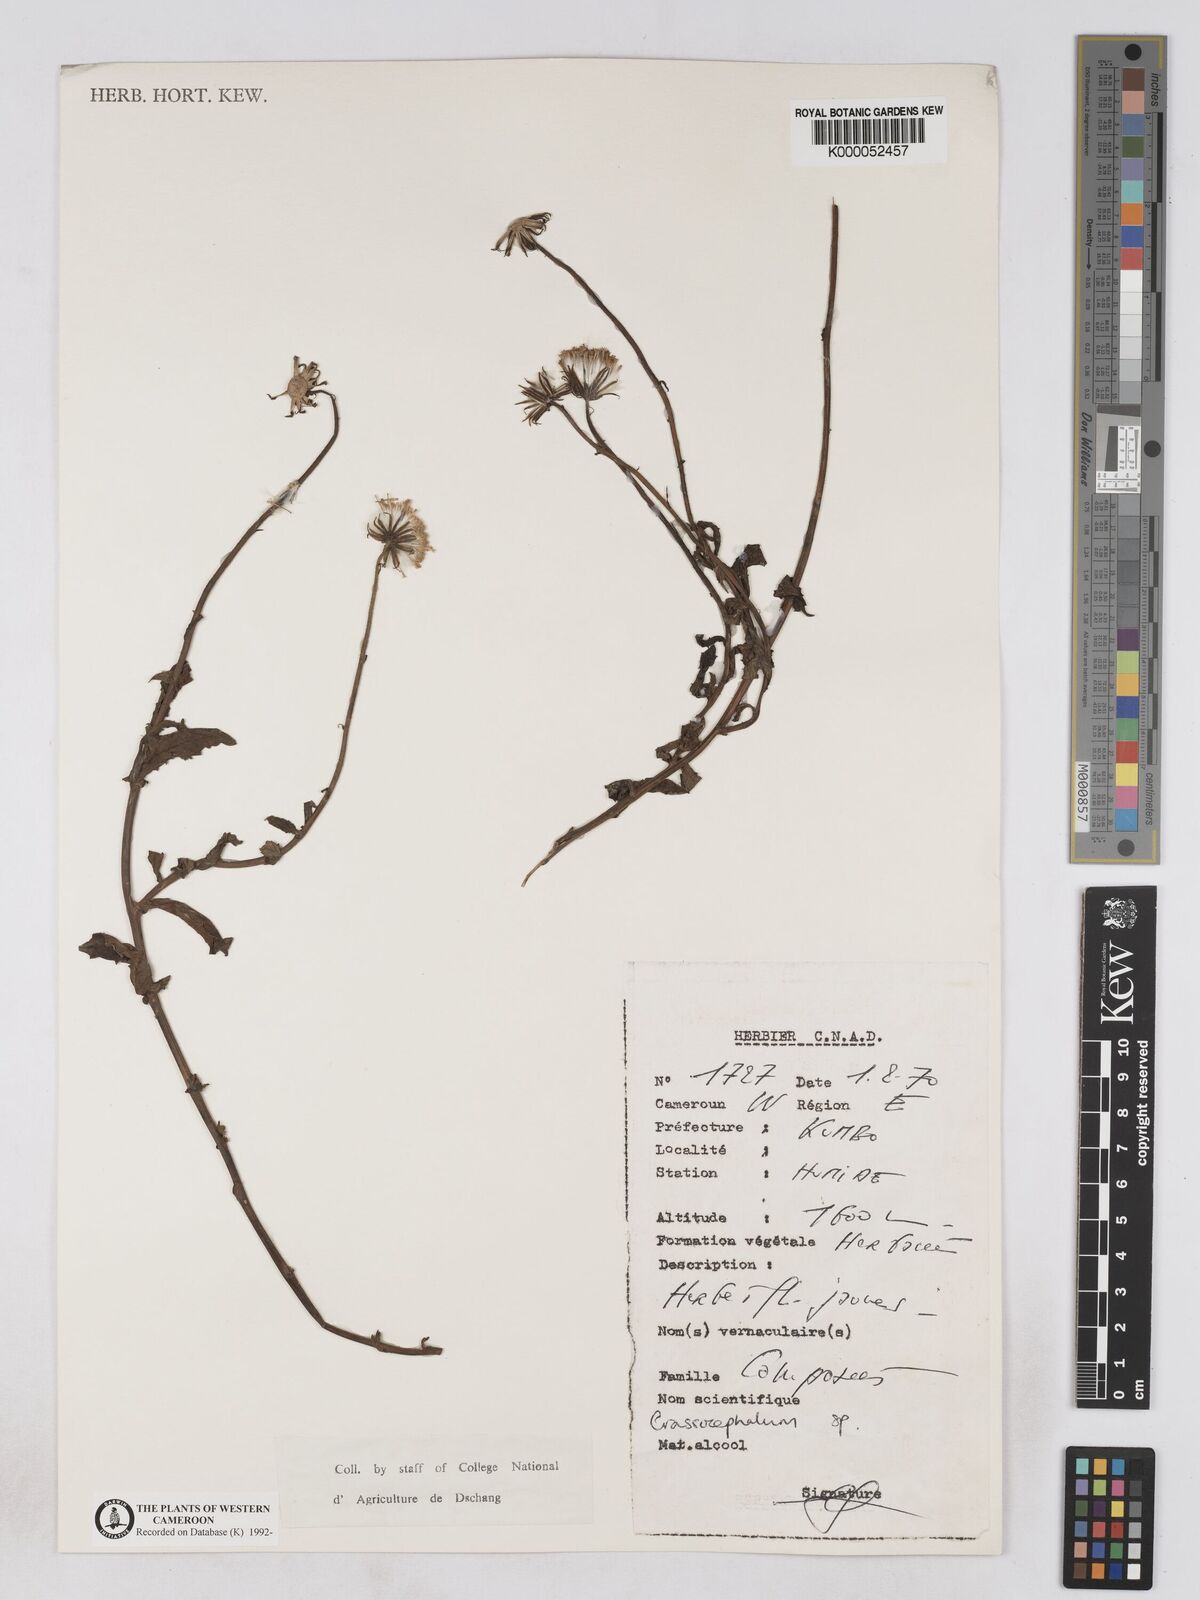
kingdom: Plantae
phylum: Tracheophyta
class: Magnoliopsida
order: Asterales
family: Asteraceae
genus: Crassocephalum
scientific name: Crassocephalum
